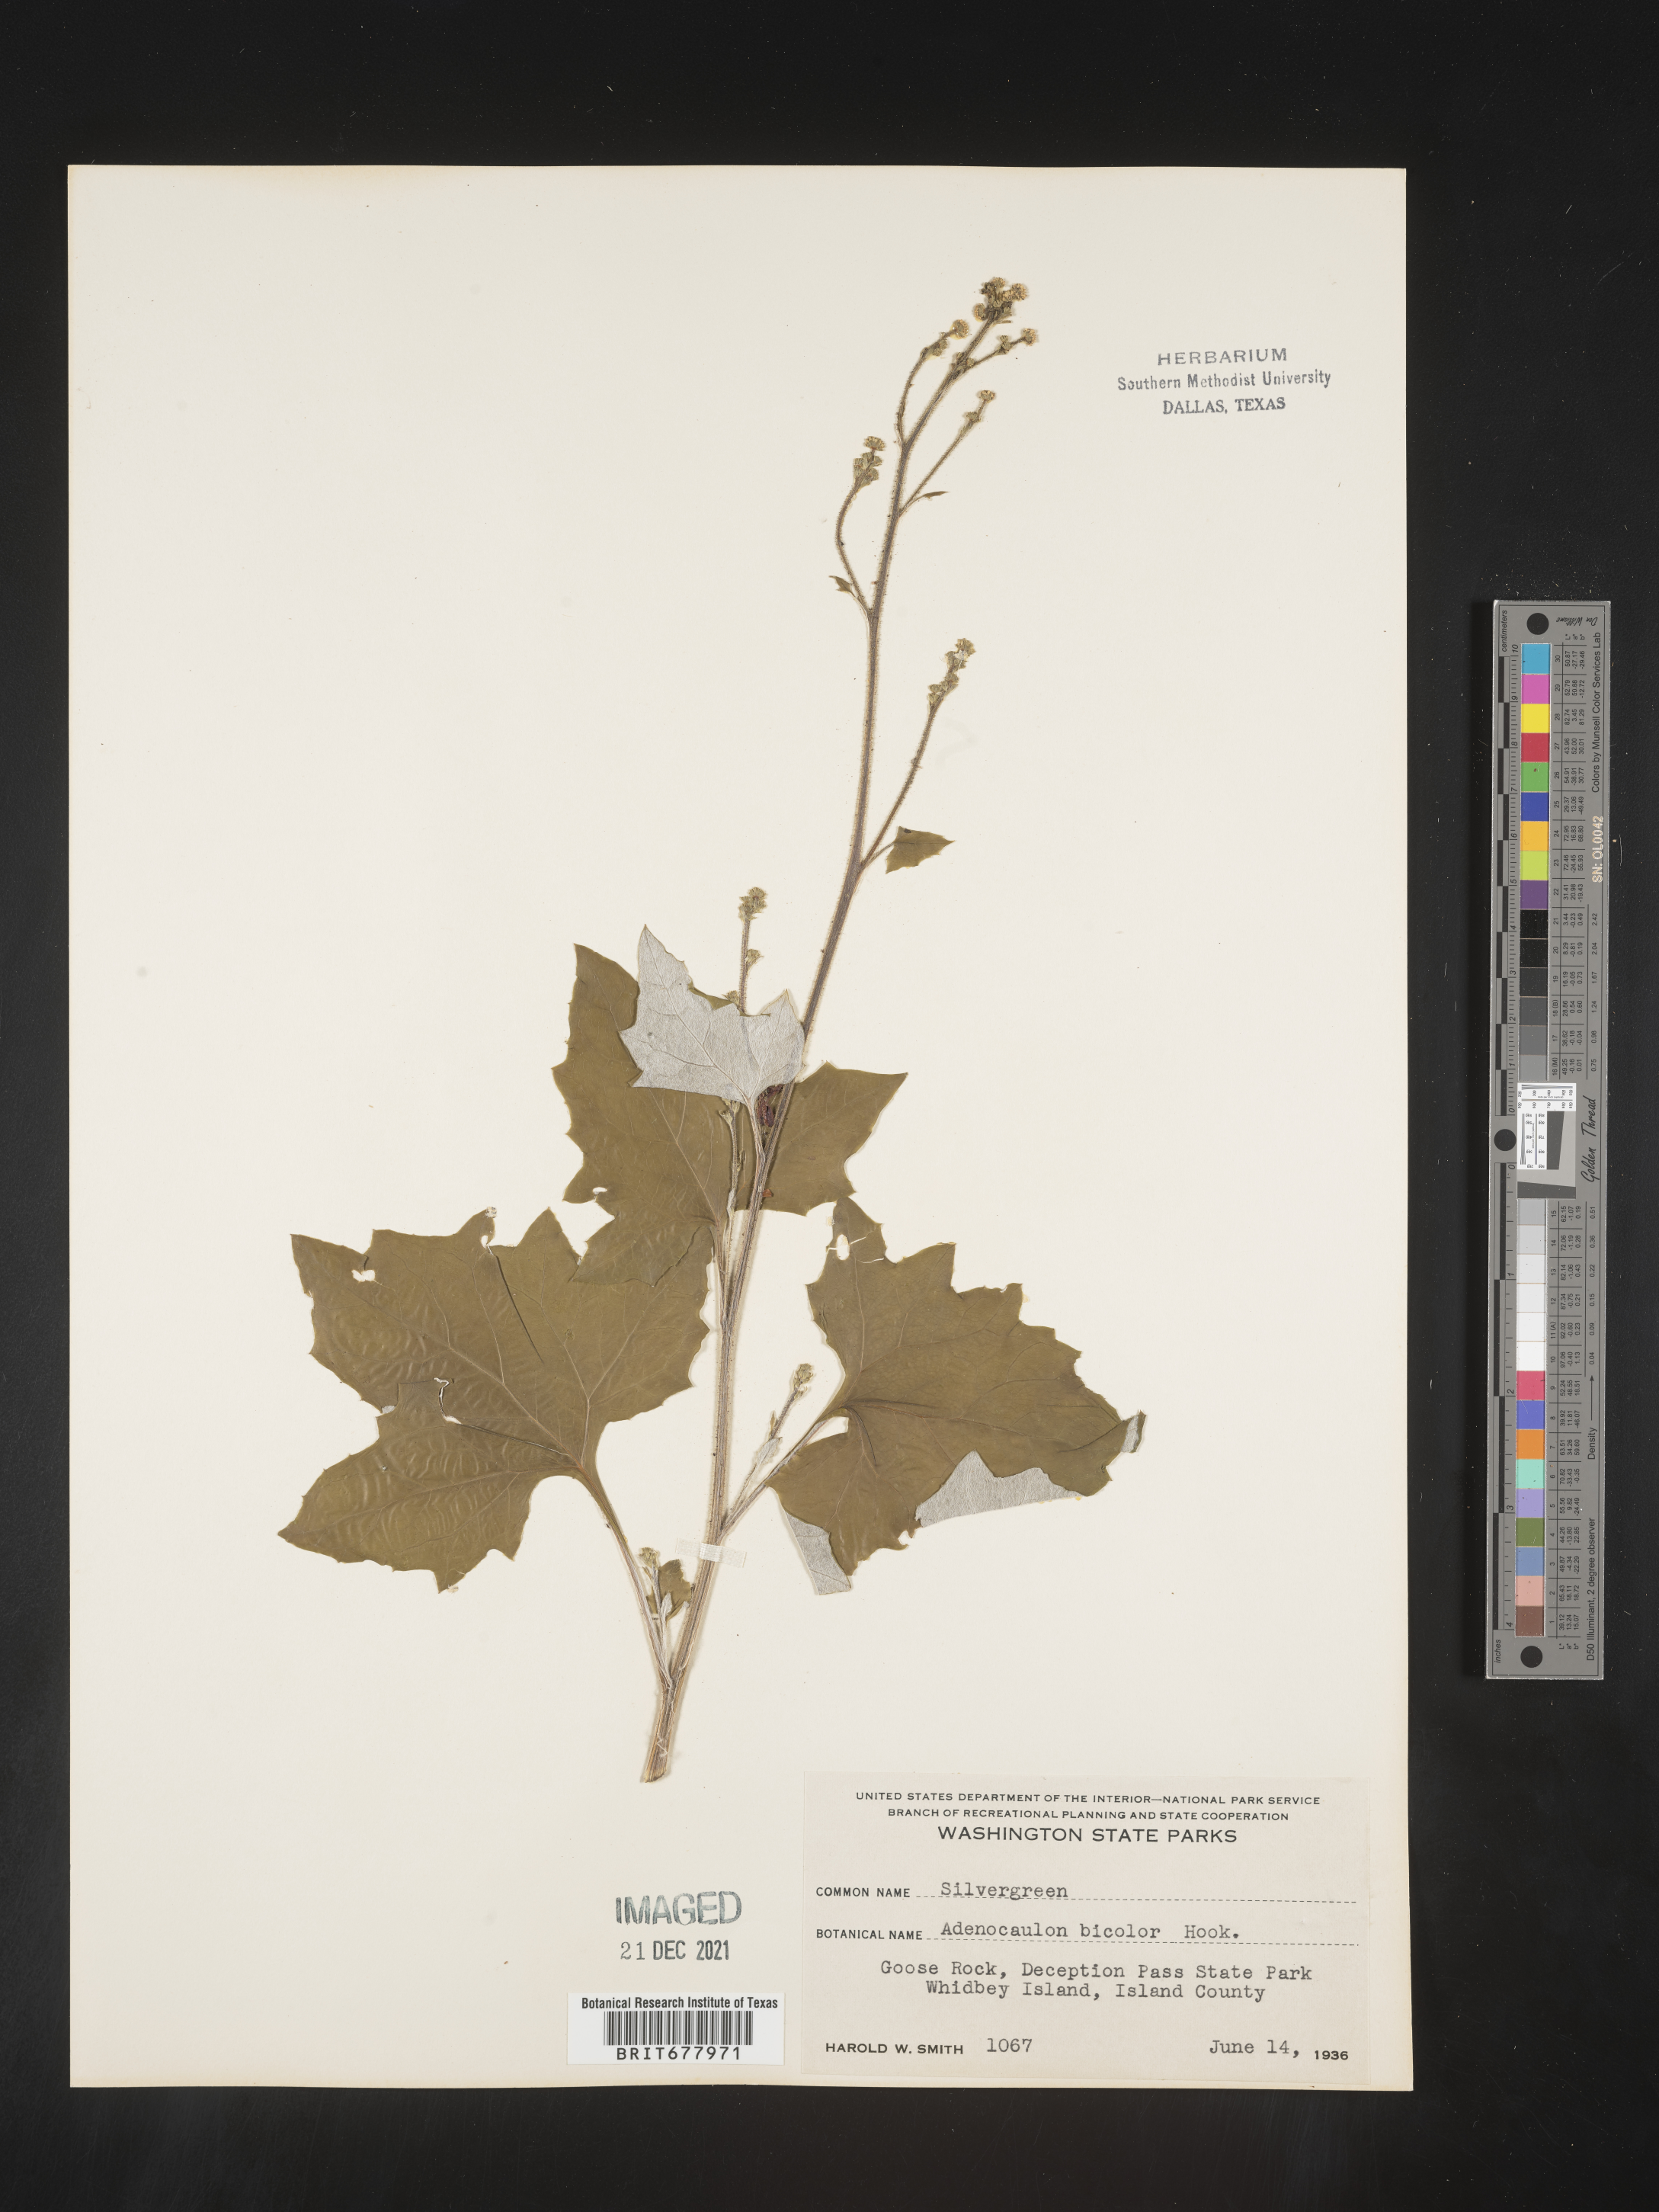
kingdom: Plantae
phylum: Tracheophyta
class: Magnoliopsida
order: Asterales
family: Asteraceae
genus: Adenocaulon
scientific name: Adenocaulon
